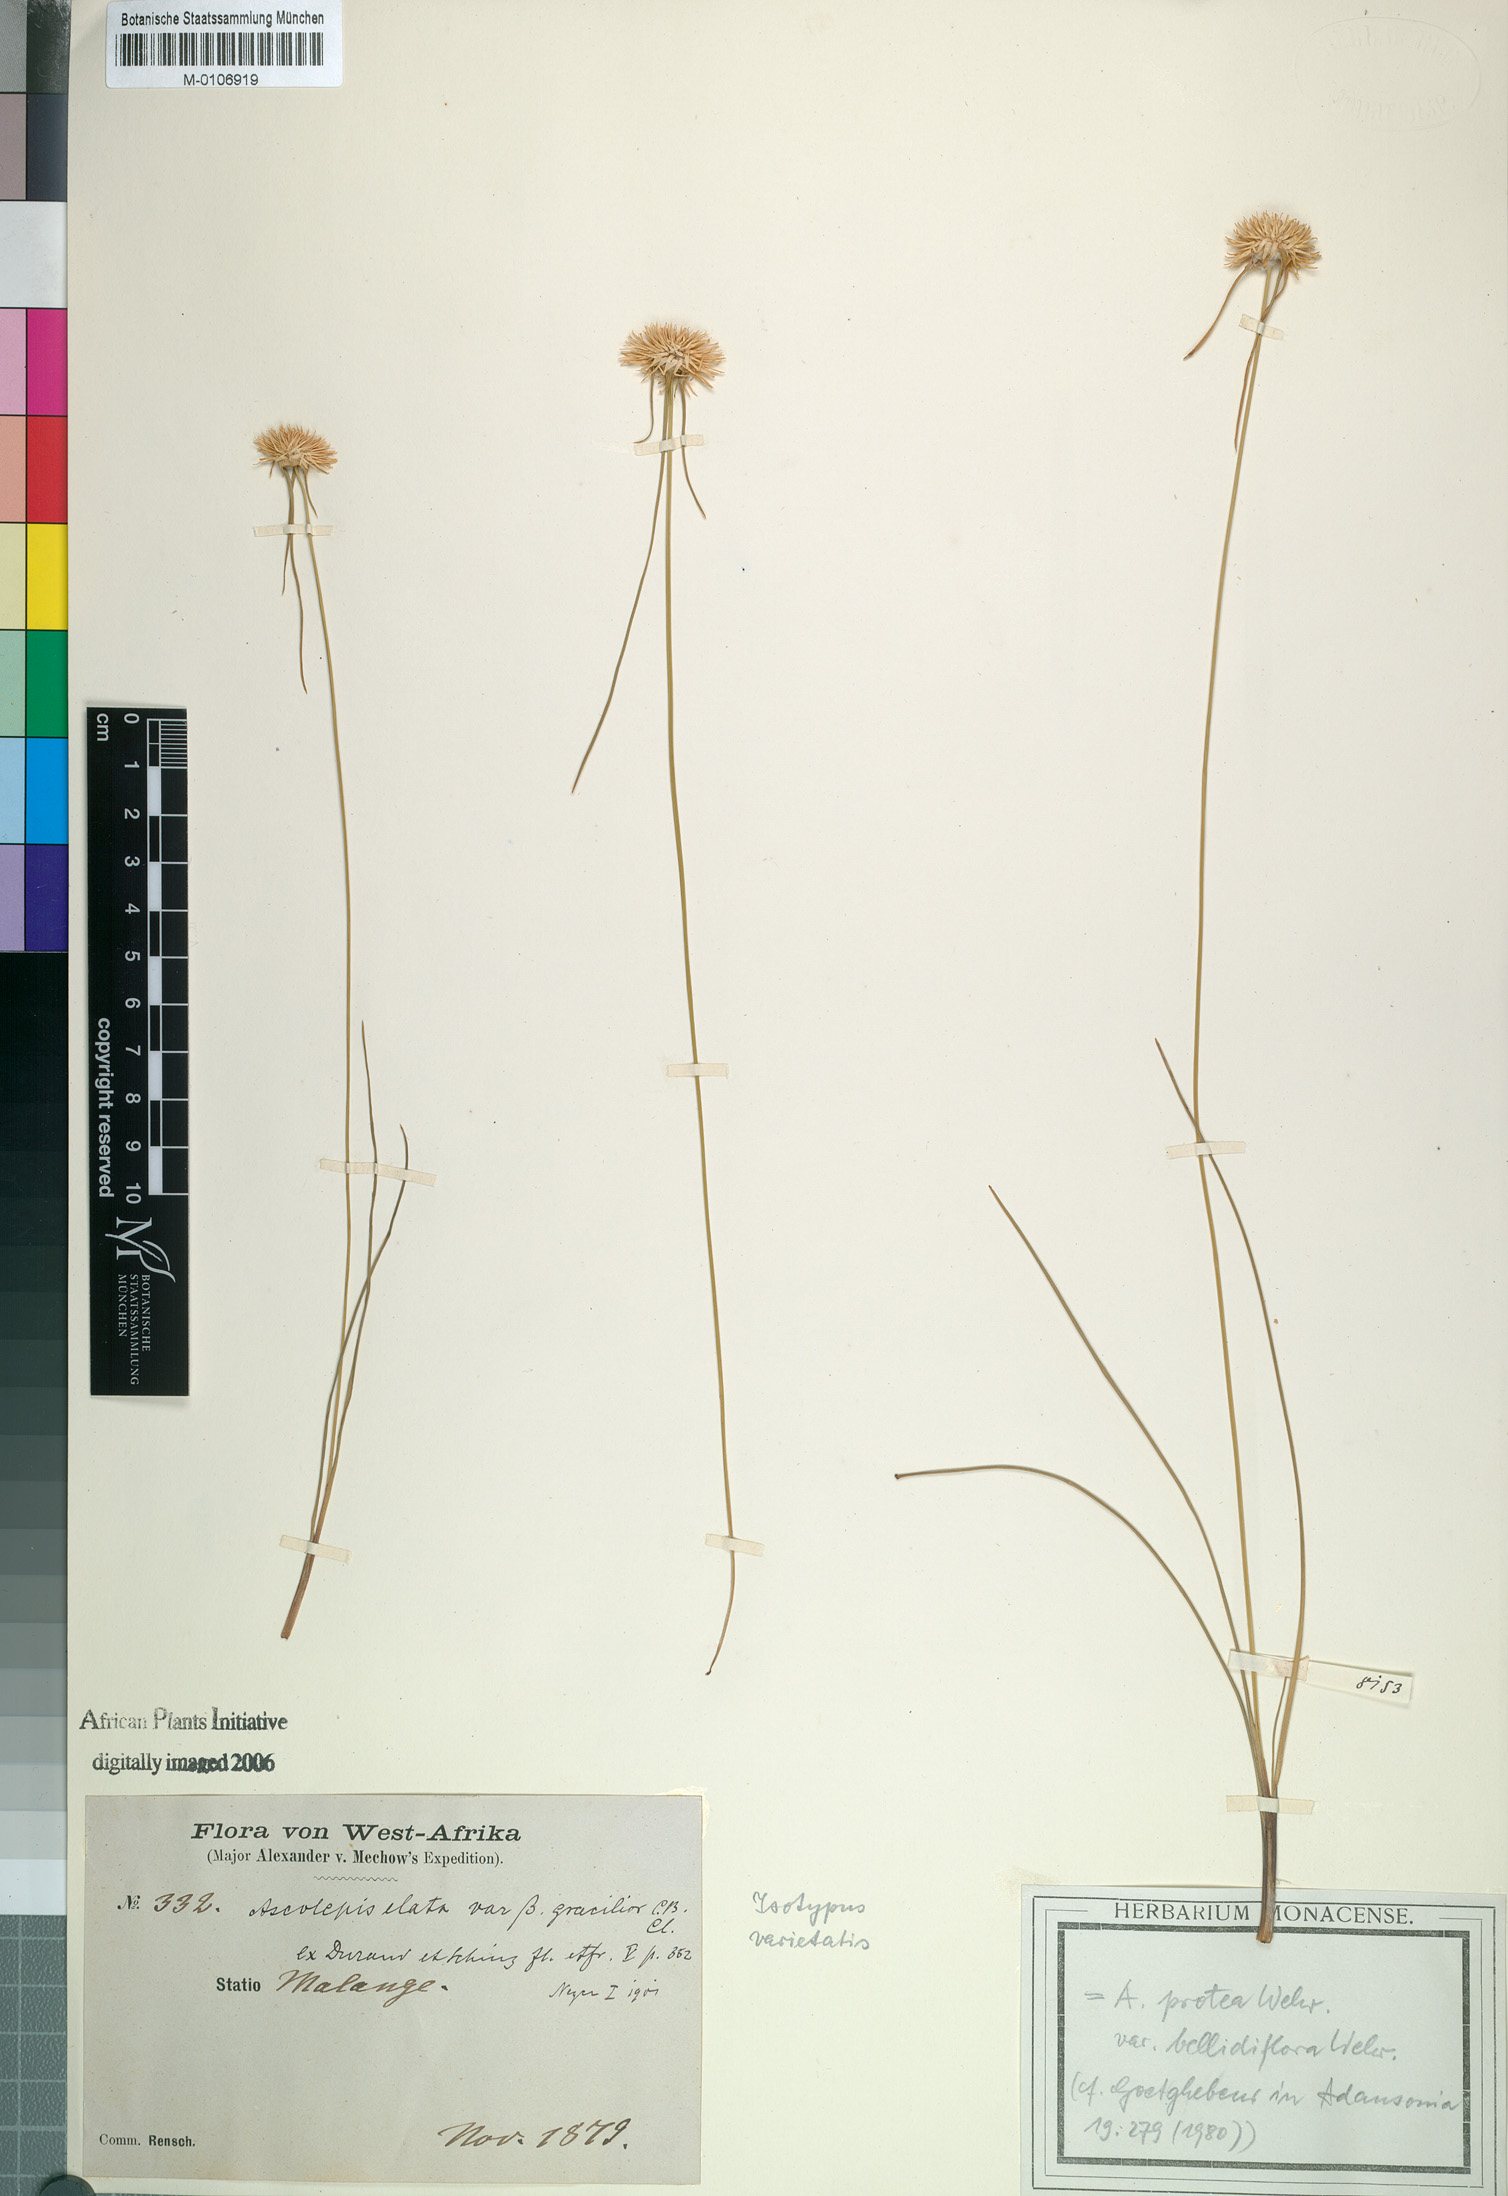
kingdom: Plantae
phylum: Tracheophyta
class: Liliopsida
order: Poales
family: Cyperaceae
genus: Cyperus
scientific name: Cyperus proteus
